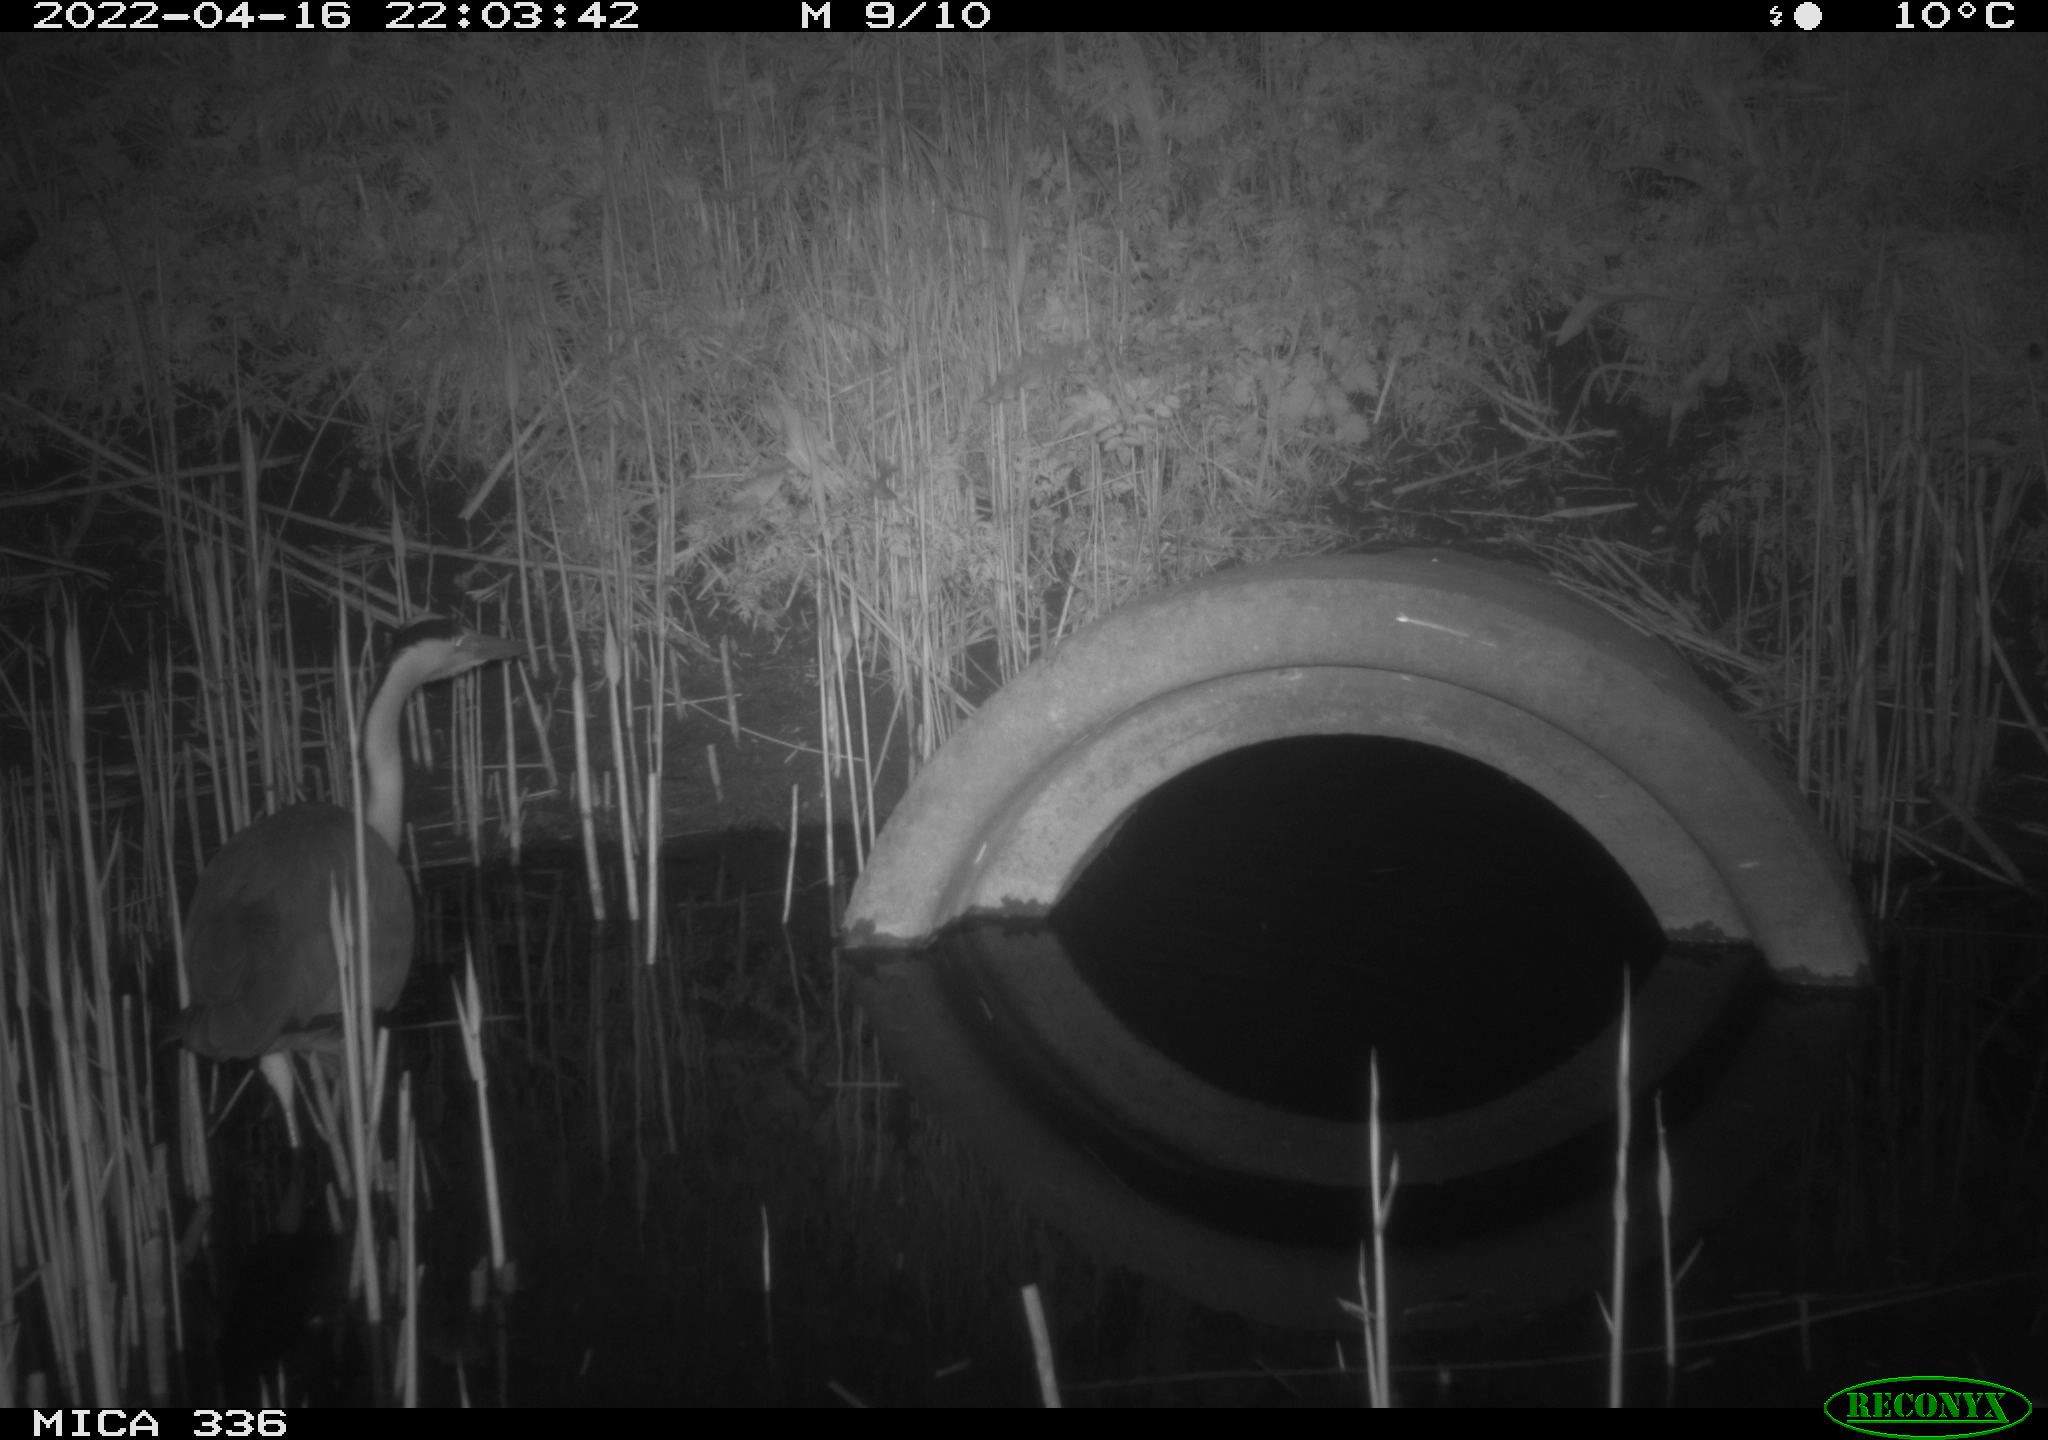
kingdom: Animalia
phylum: Chordata
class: Aves
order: Pelecaniformes
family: Ardeidae
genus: Ardea
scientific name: Ardea cinerea
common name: Grey heron
